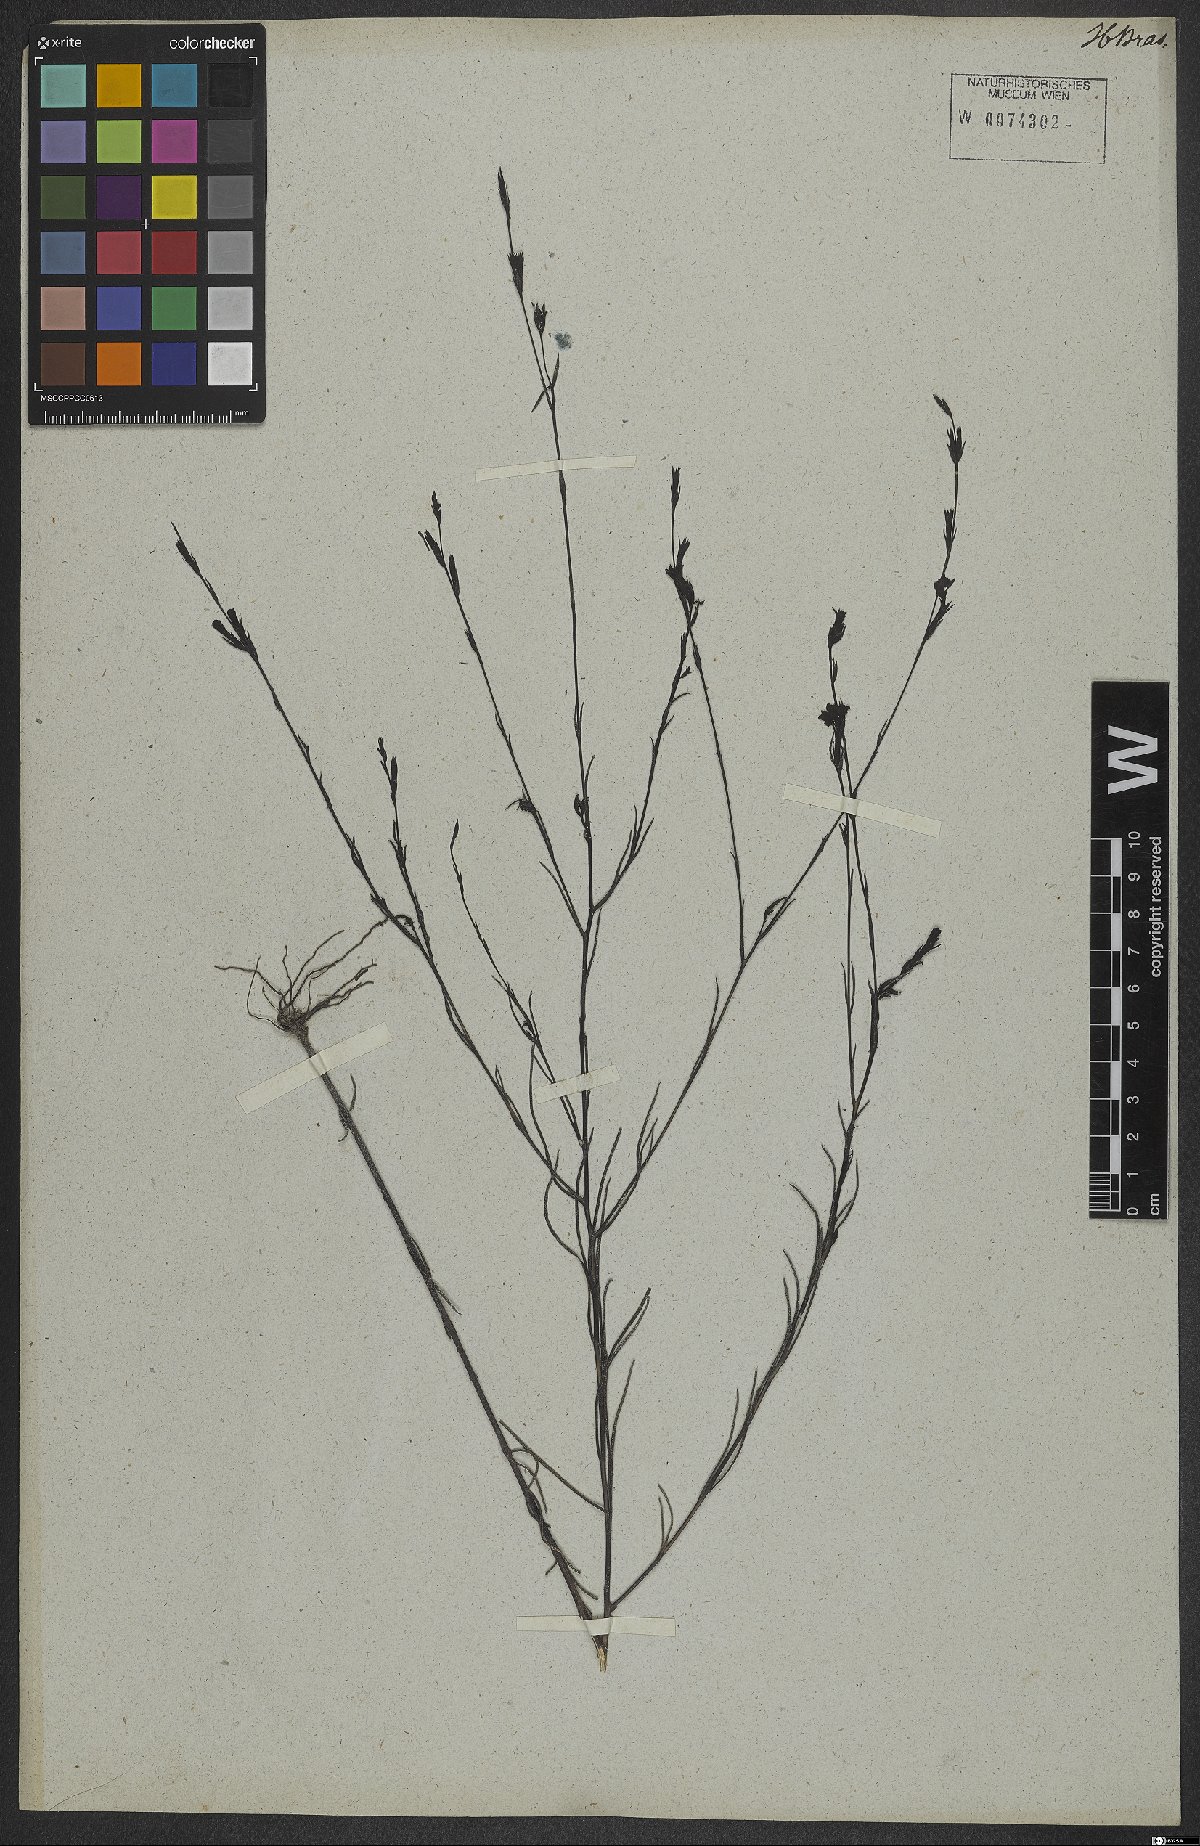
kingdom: Plantae
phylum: Tracheophyta
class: Magnoliopsida
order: Lamiales
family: Orobanchaceae
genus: Buchnera
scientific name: Buchnera palustris
